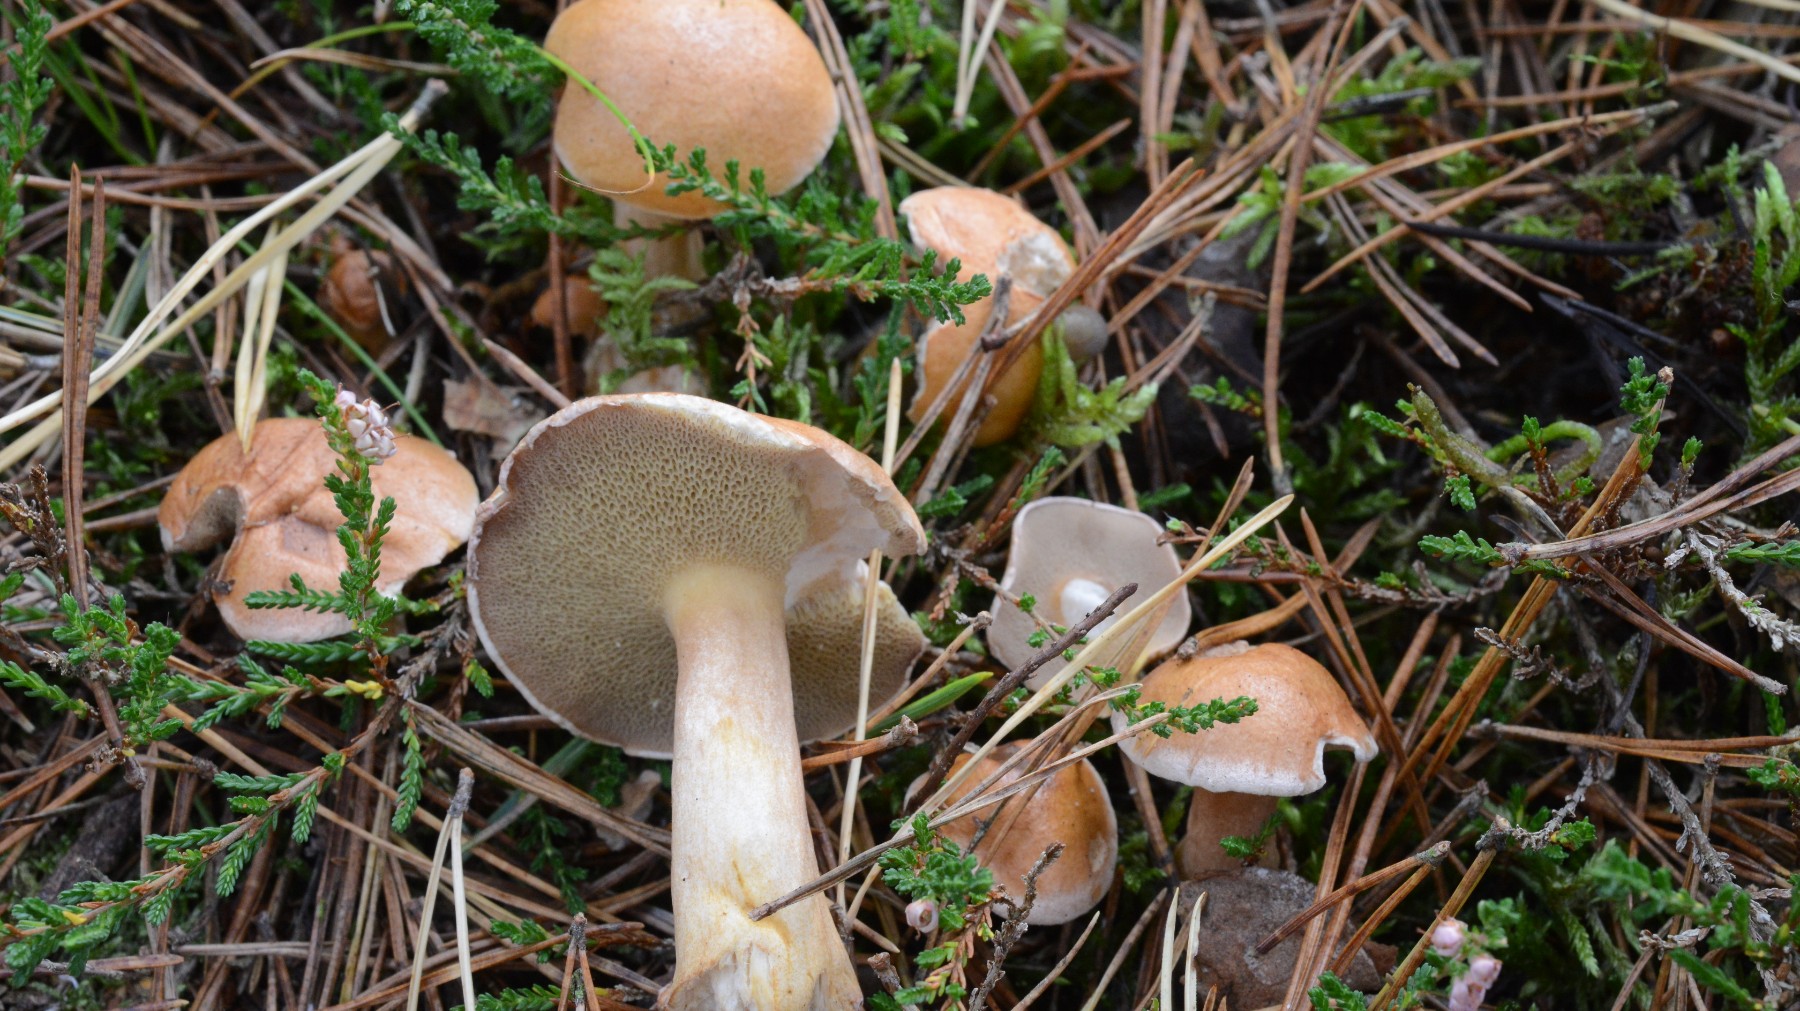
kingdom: Fungi
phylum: Basidiomycota
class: Agaricomycetes
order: Boletales
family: Suillaceae
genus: Suillus
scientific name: Suillus bovinus
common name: grovporet slimrørhat
